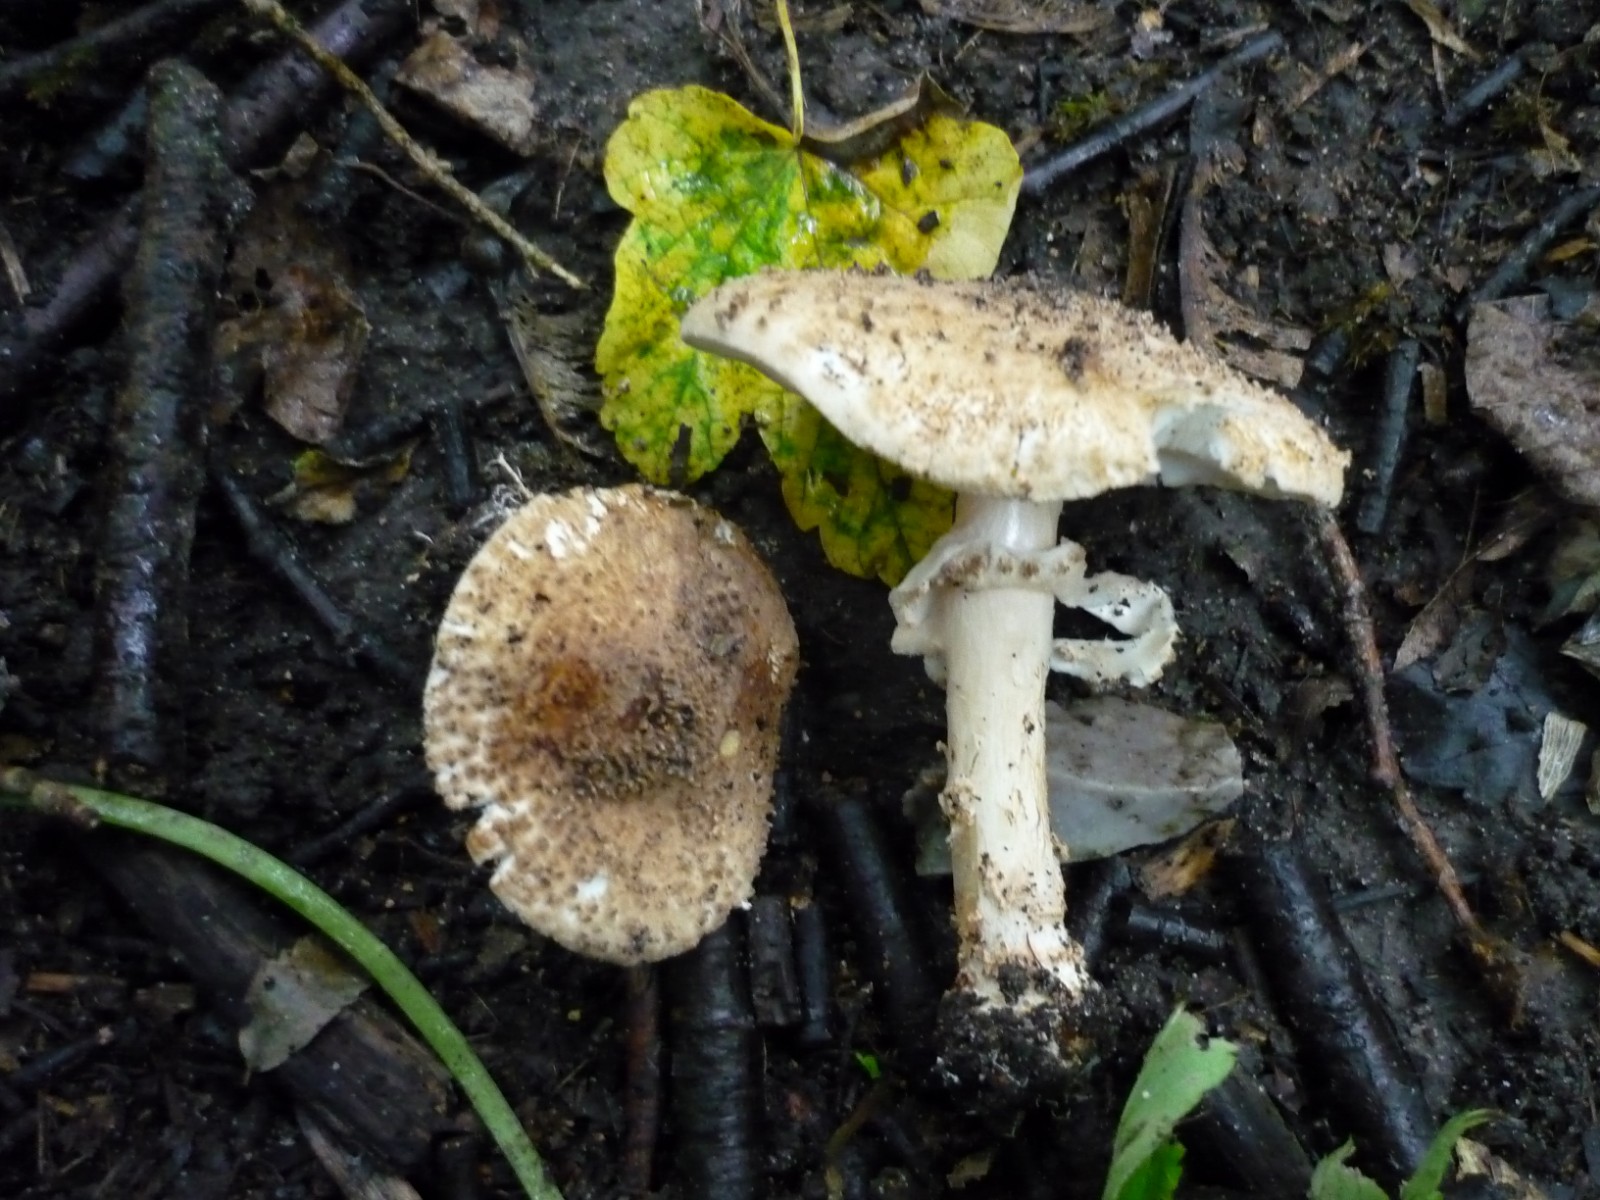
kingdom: Fungi
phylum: Basidiomycota
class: Agaricomycetes
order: Agaricales
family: Agaricaceae
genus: Echinoderma
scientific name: Echinoderma asperum
